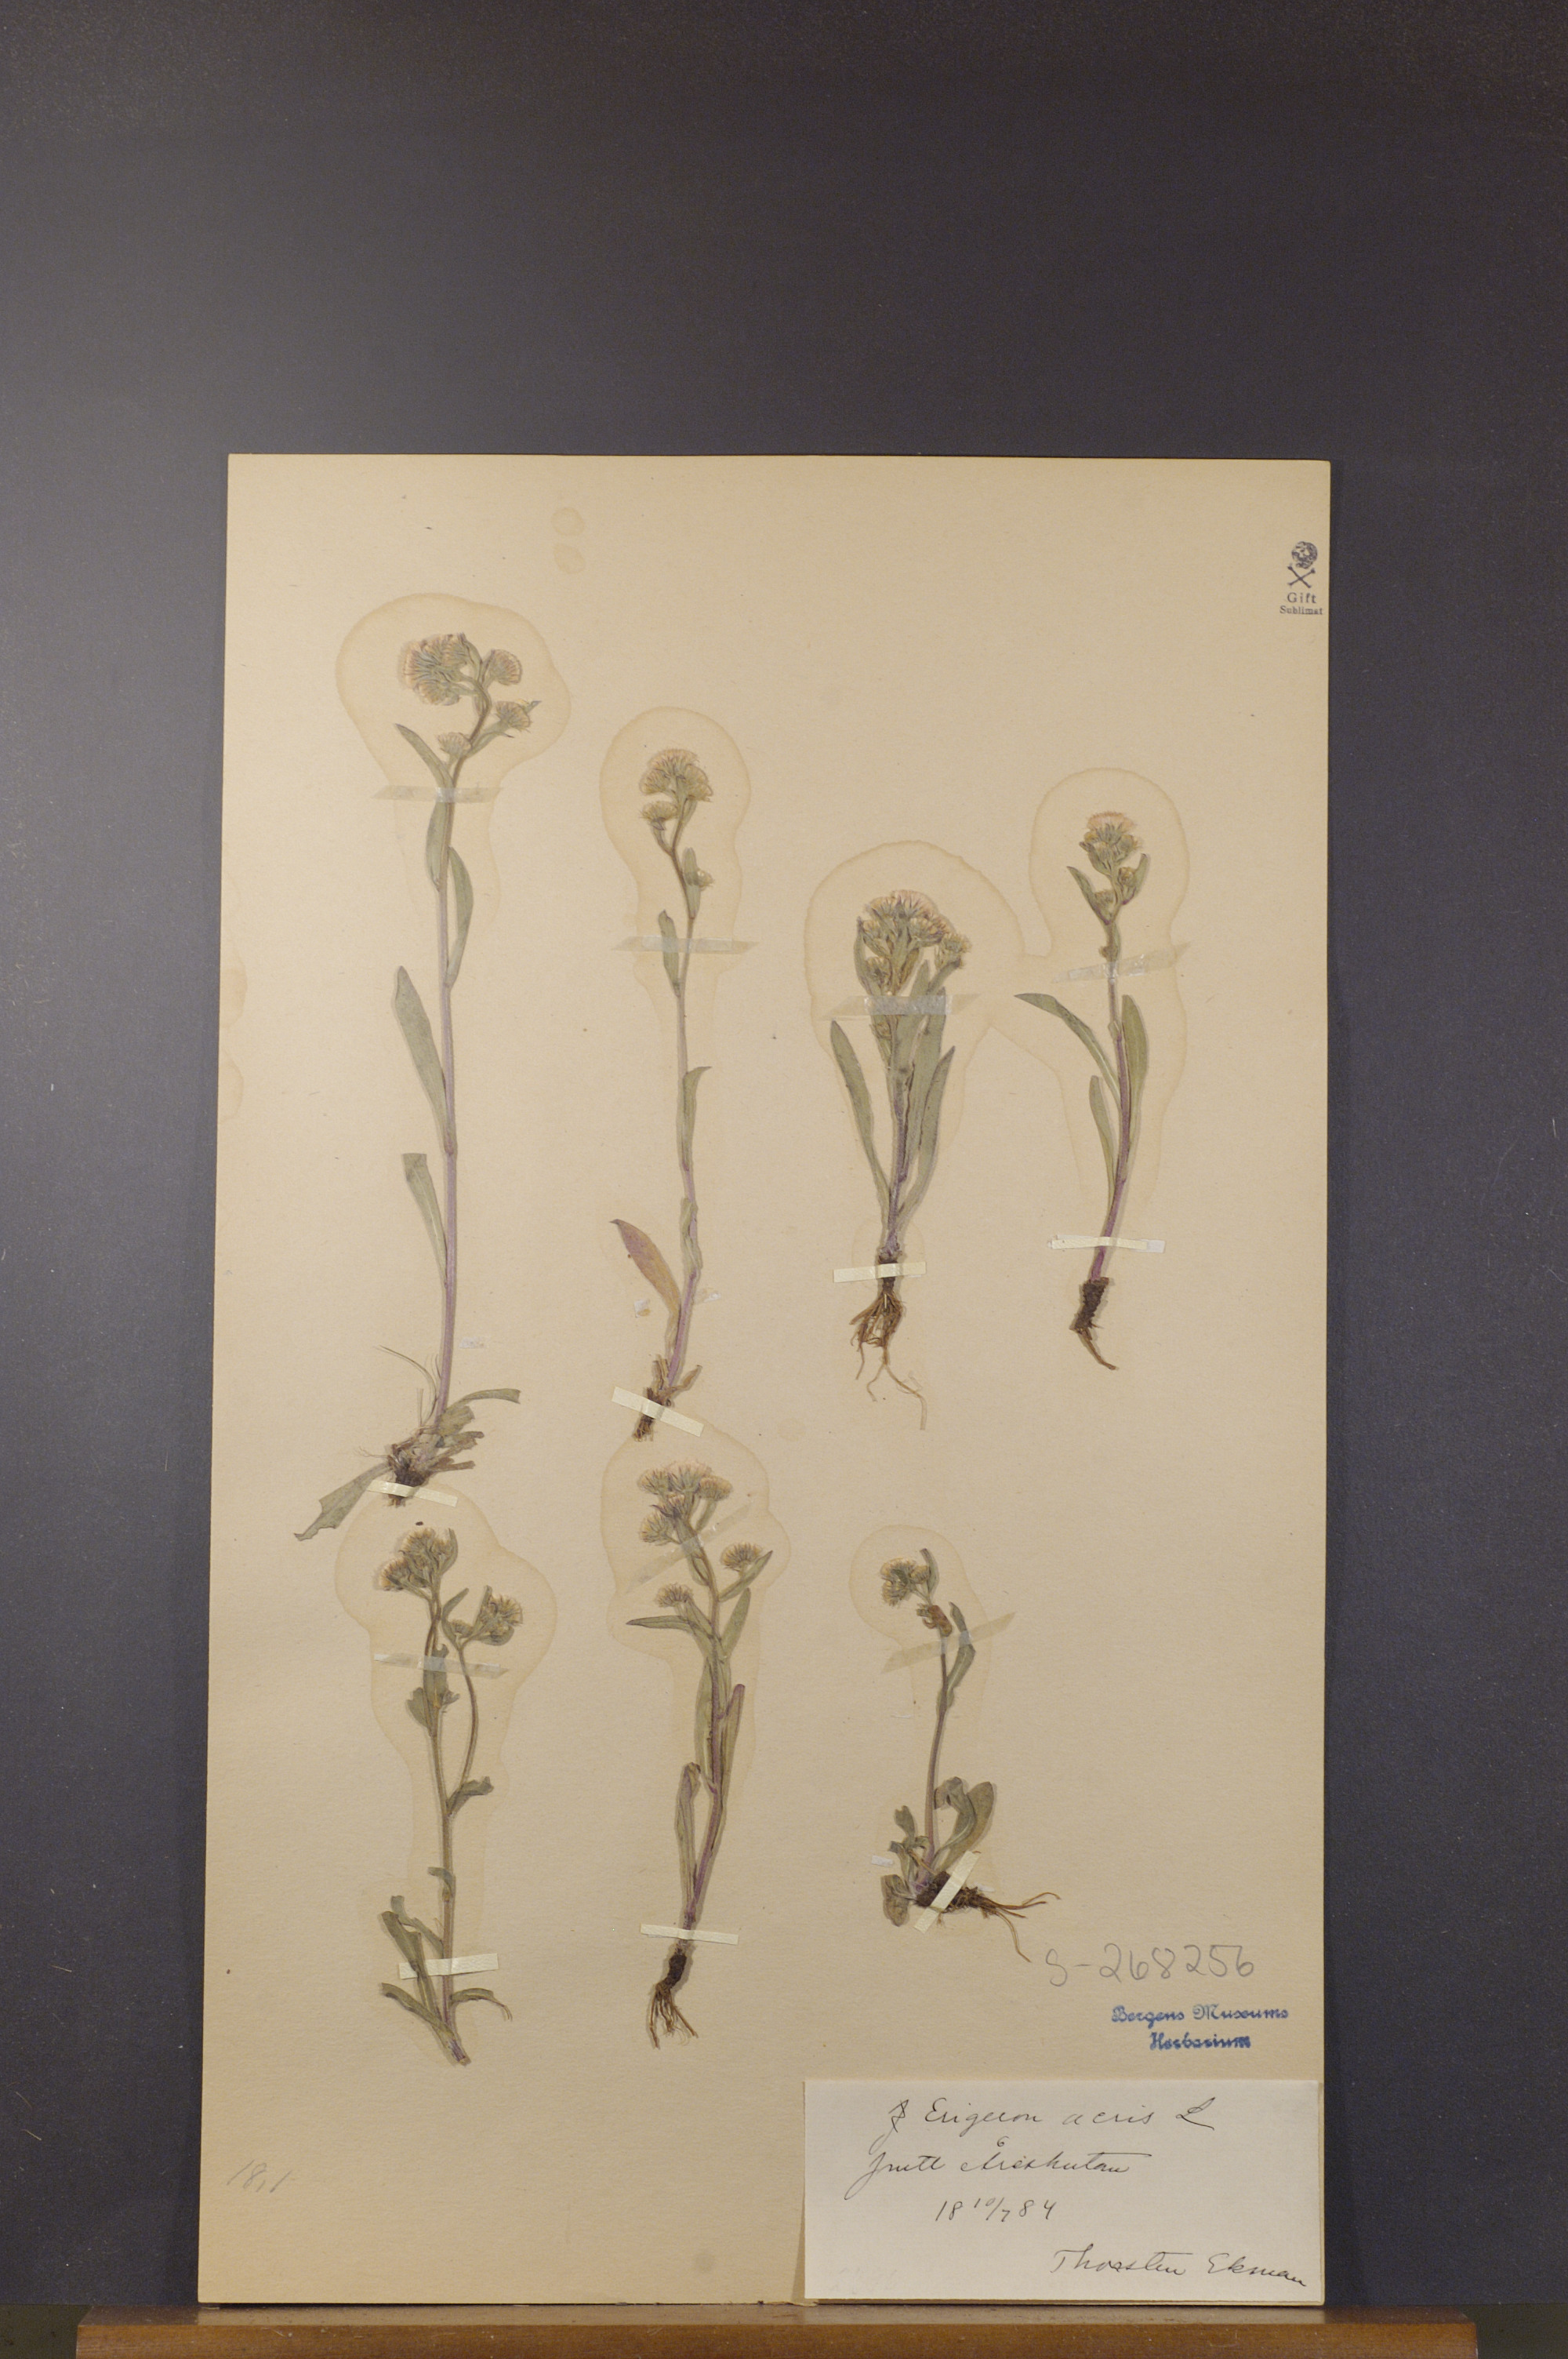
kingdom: Plantae
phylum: Tracheophyta
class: Magnoliopsida
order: Asterales
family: Asteraceae
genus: Erigeron
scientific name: Erigeron acris
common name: Blue fleabane
